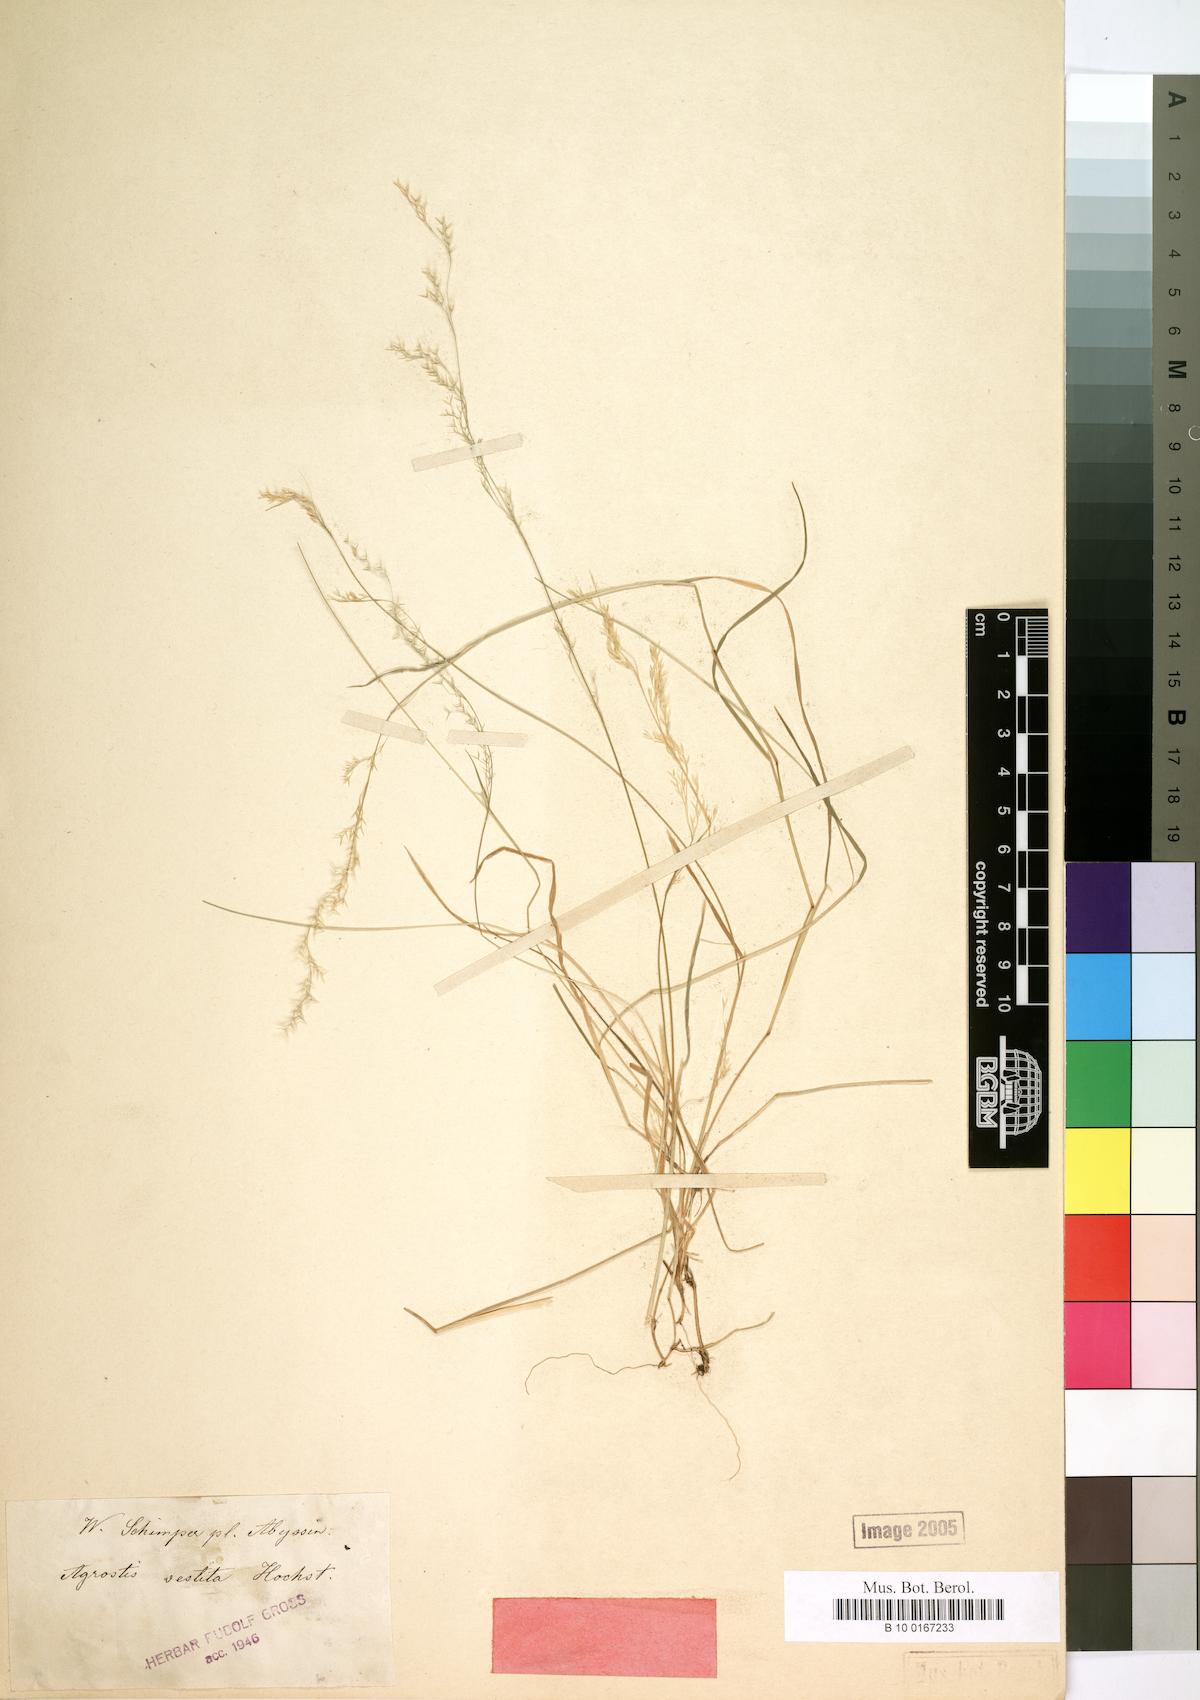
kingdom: Plantae
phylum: Tracheophyta
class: Liliopsida
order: Poales
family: Poaceae
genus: Lachnagrostis
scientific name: Lachnagrostis lachnantha
